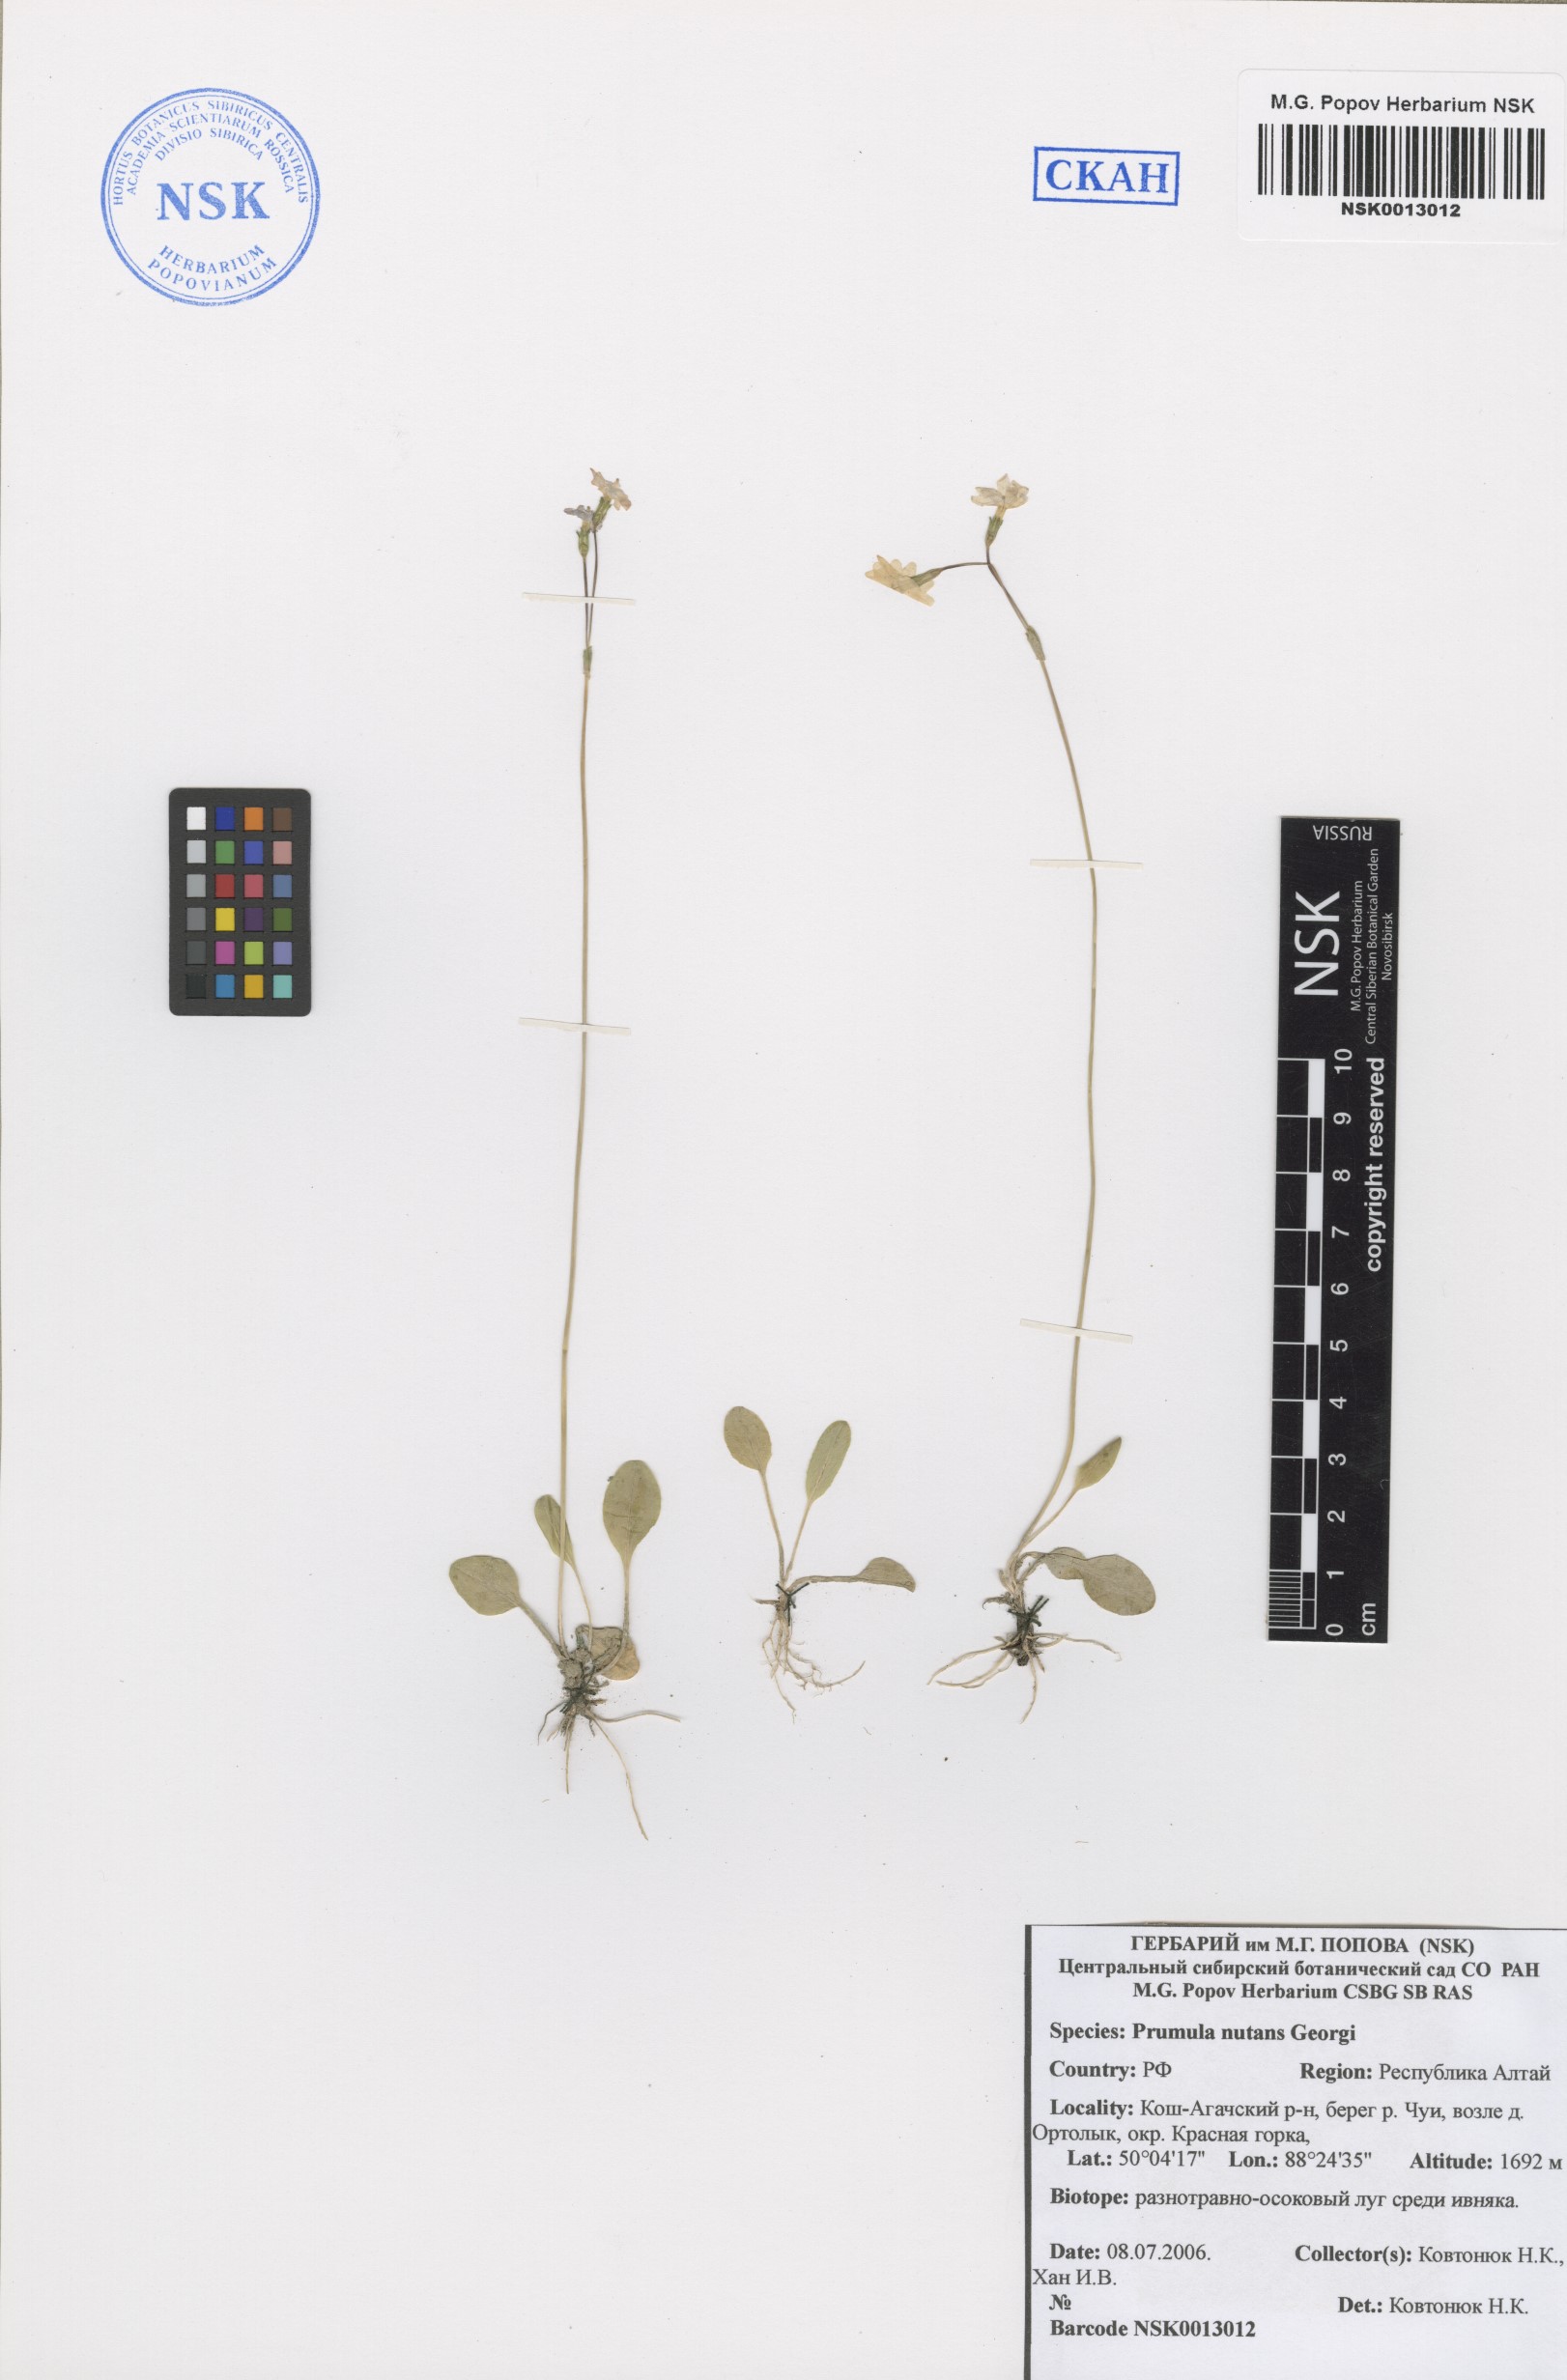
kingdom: Plantae
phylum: Tracheophyta
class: Magnoliopsida
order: Ericales
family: Primulaceae
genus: Primula
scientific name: Primula nutans
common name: Siberian primrose
